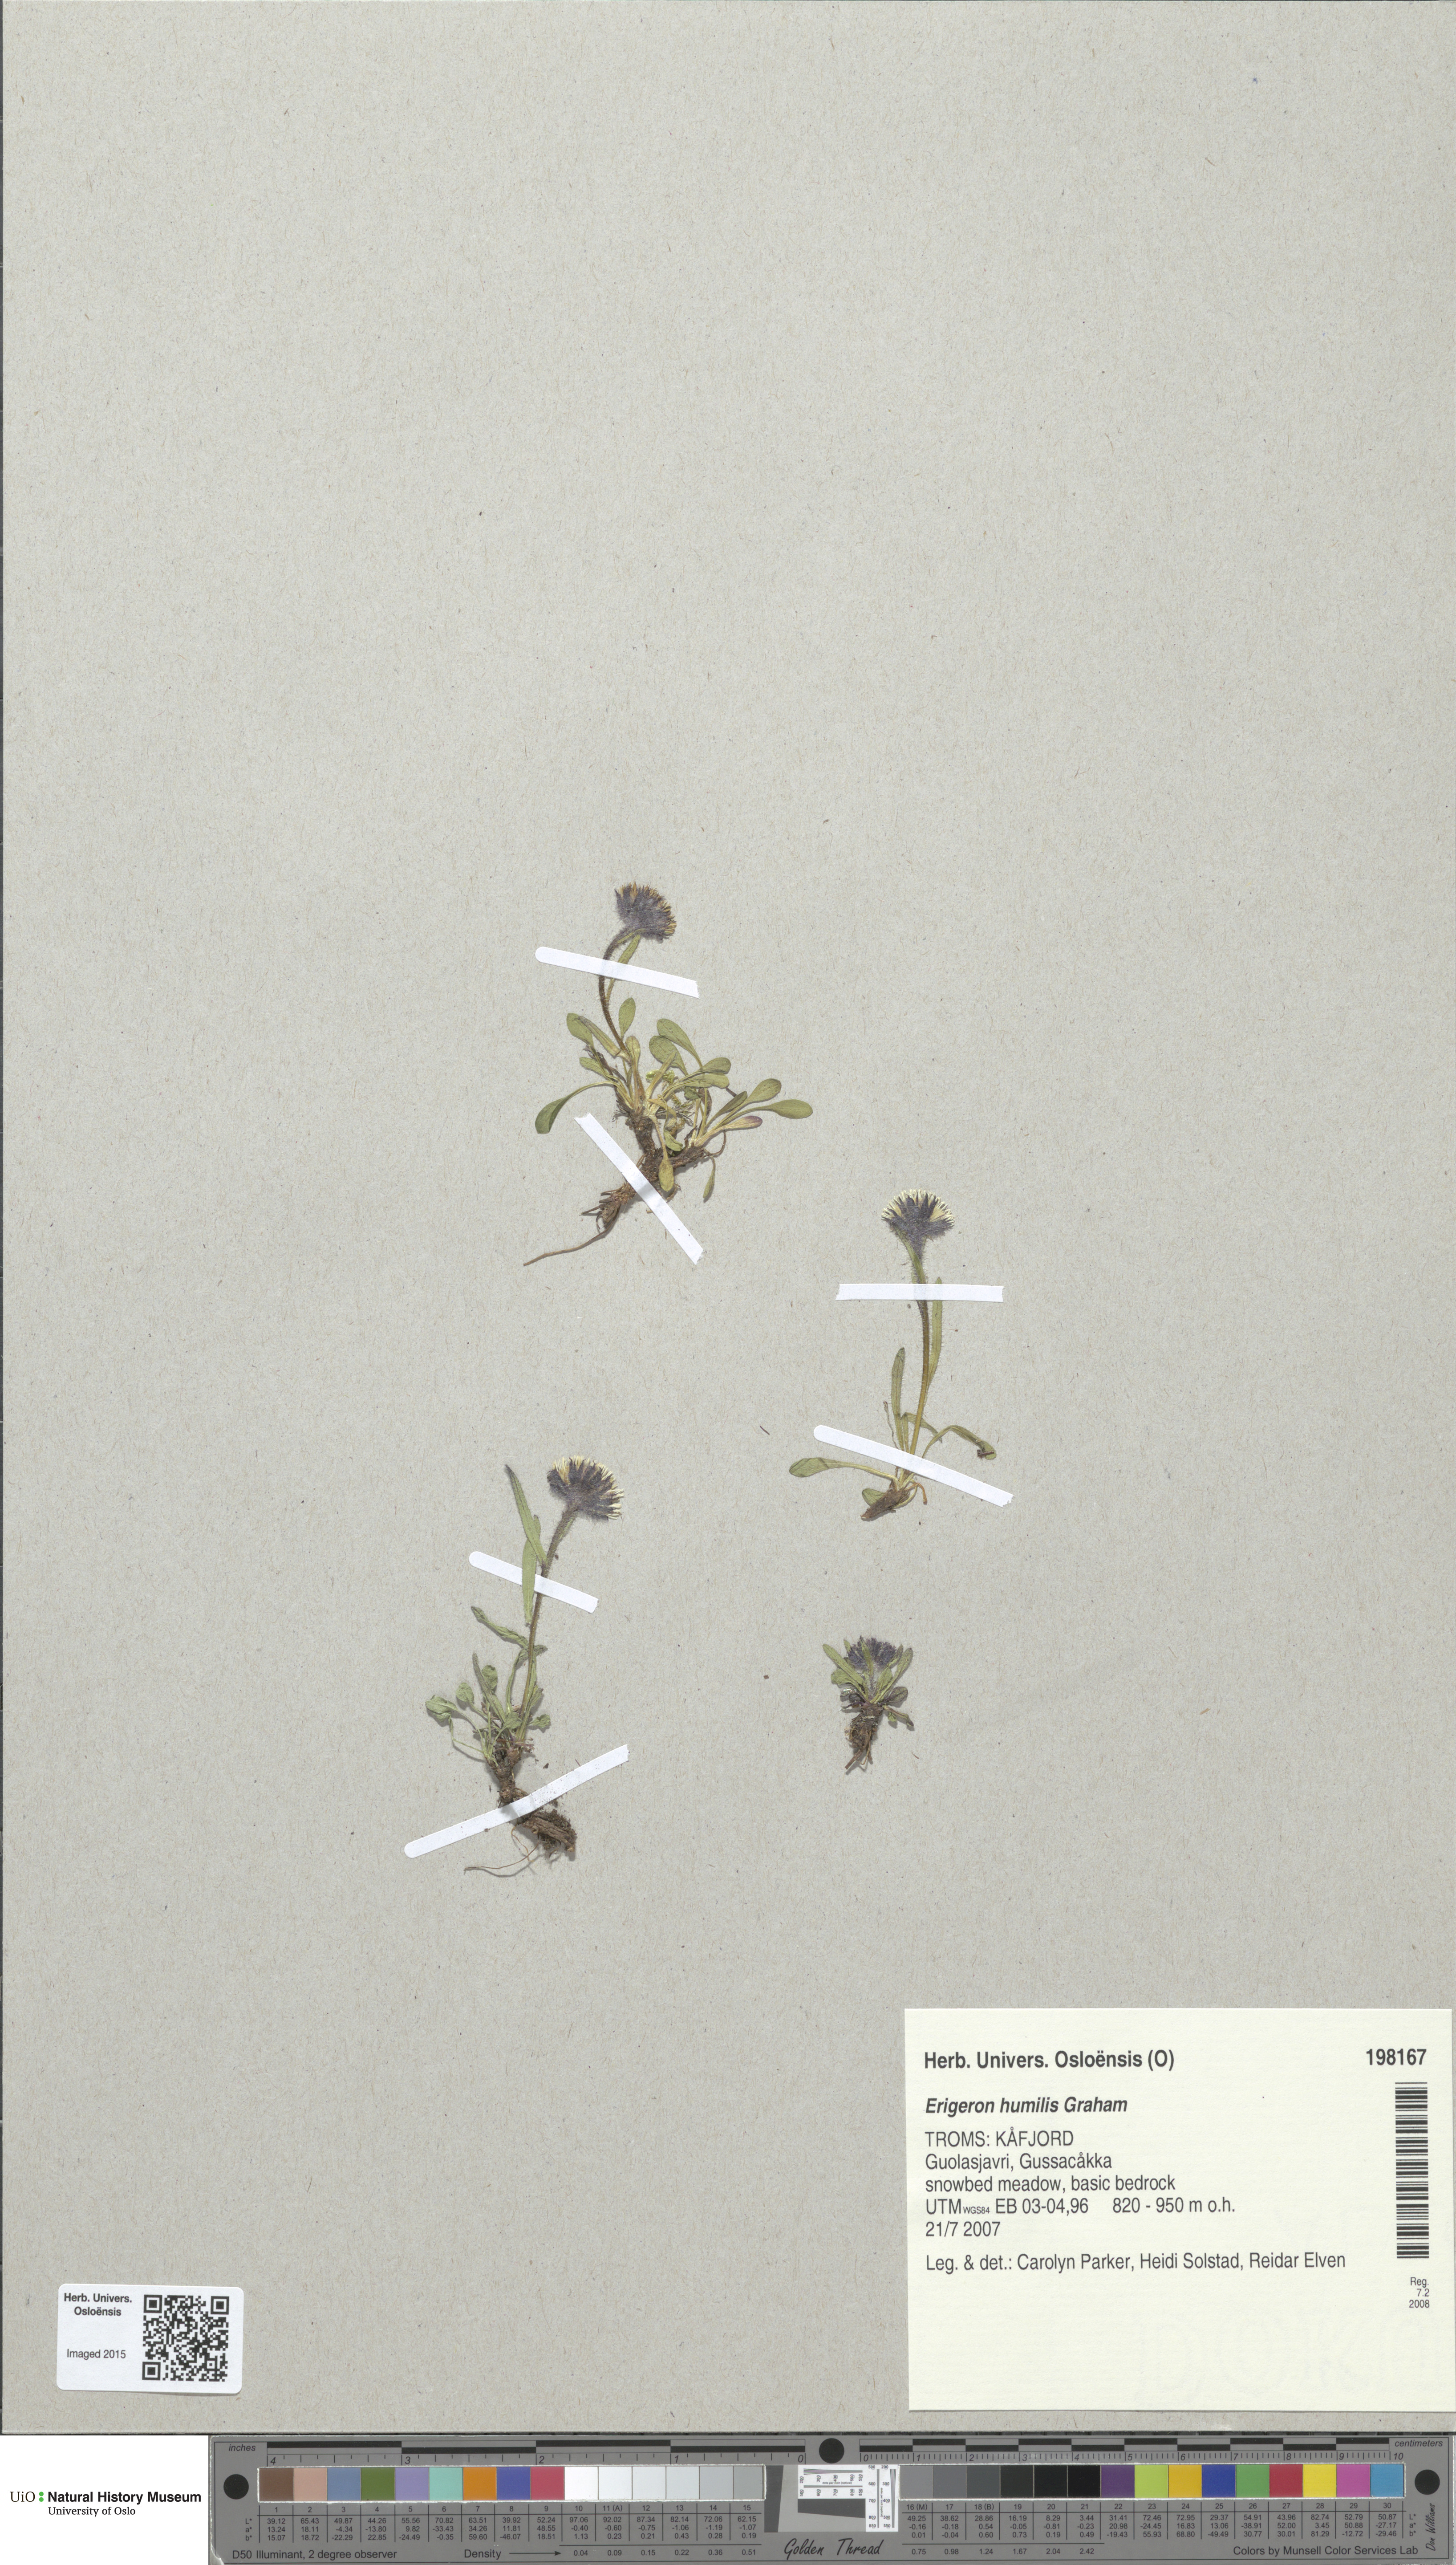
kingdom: Plantae
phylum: Tracheophyta
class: Magnoliopsida
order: Asterales
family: Asteraceae
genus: Erigeron
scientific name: Erigeron humilis
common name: Arctic-alpine fleabane
